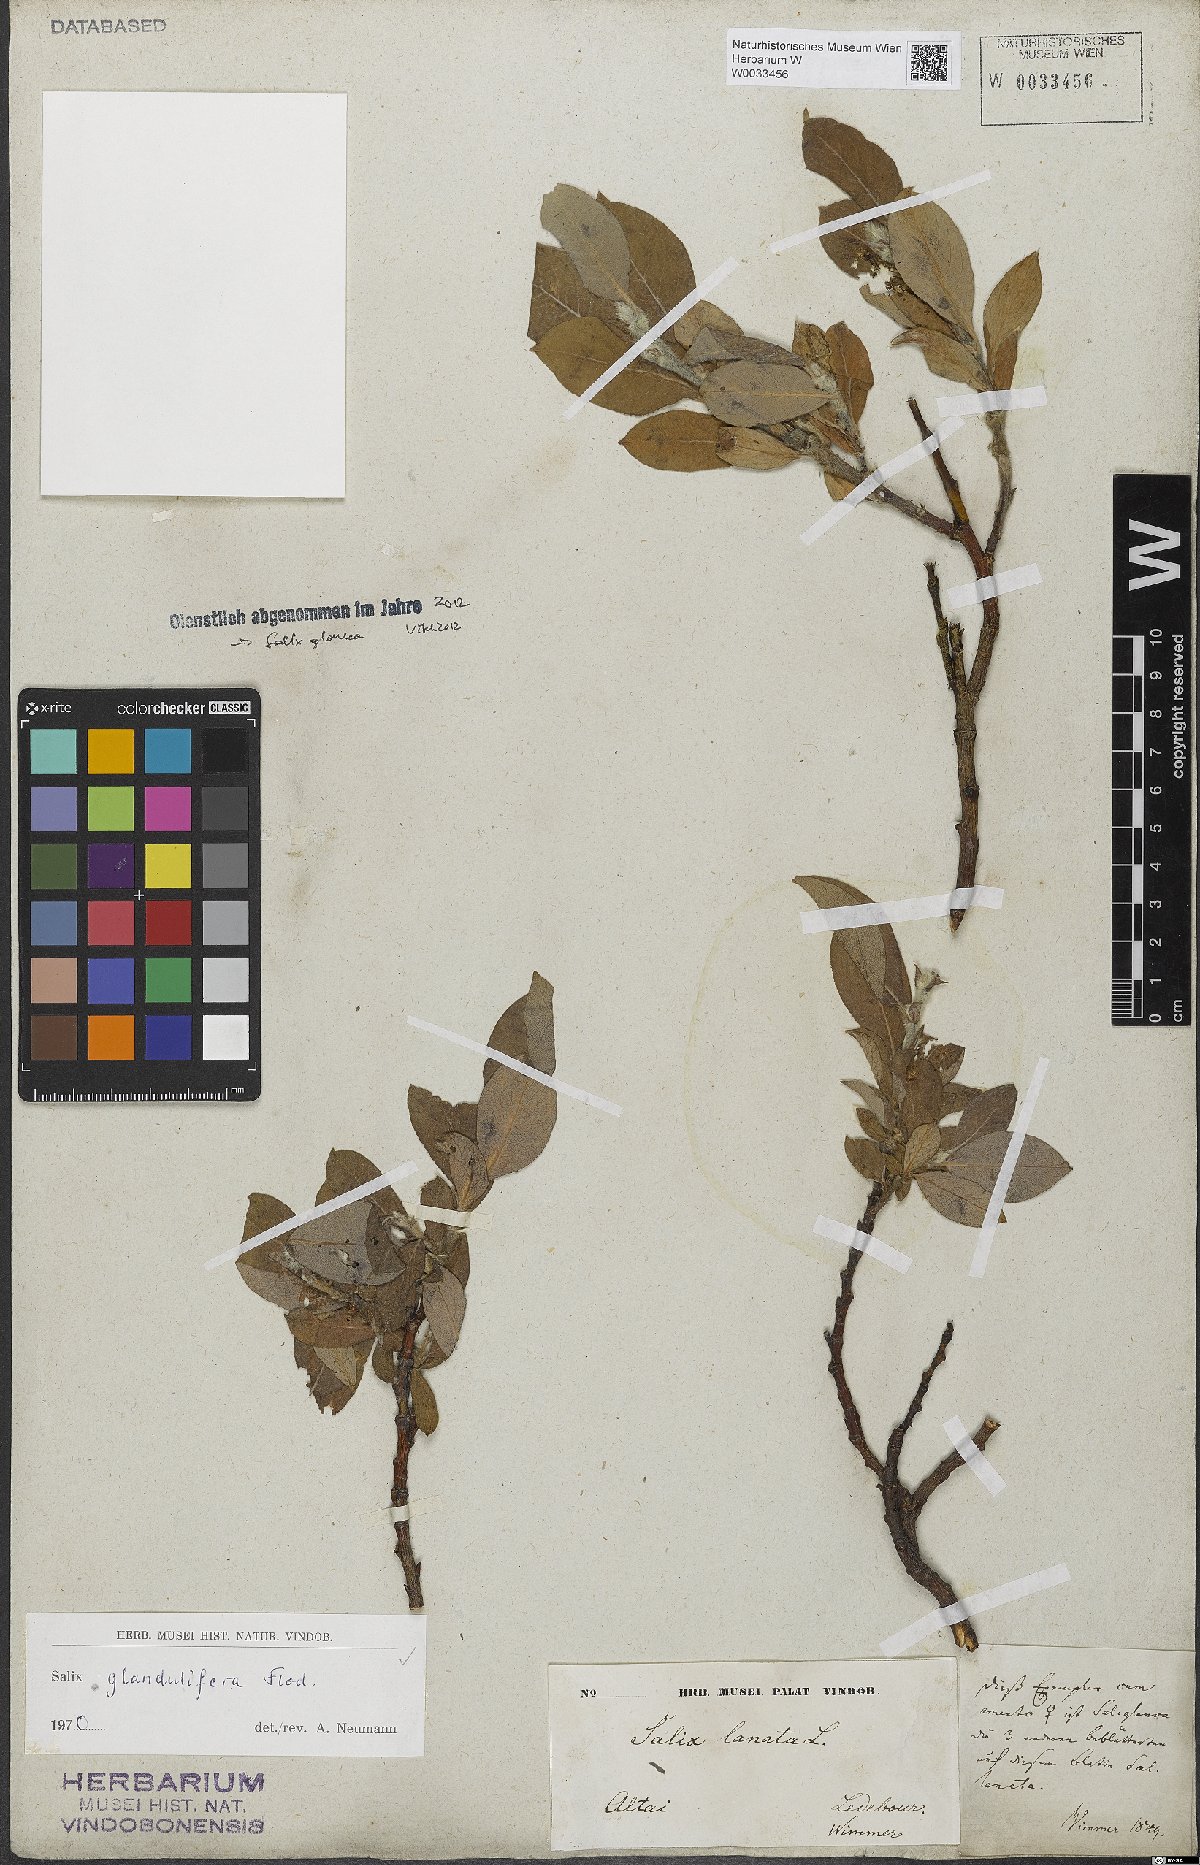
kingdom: Plantae
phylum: Tracheophyta
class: Magnoliopsida
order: Malpighiales
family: Salicaceae
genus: Salix
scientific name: Salix lanata
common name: Woolly willow
